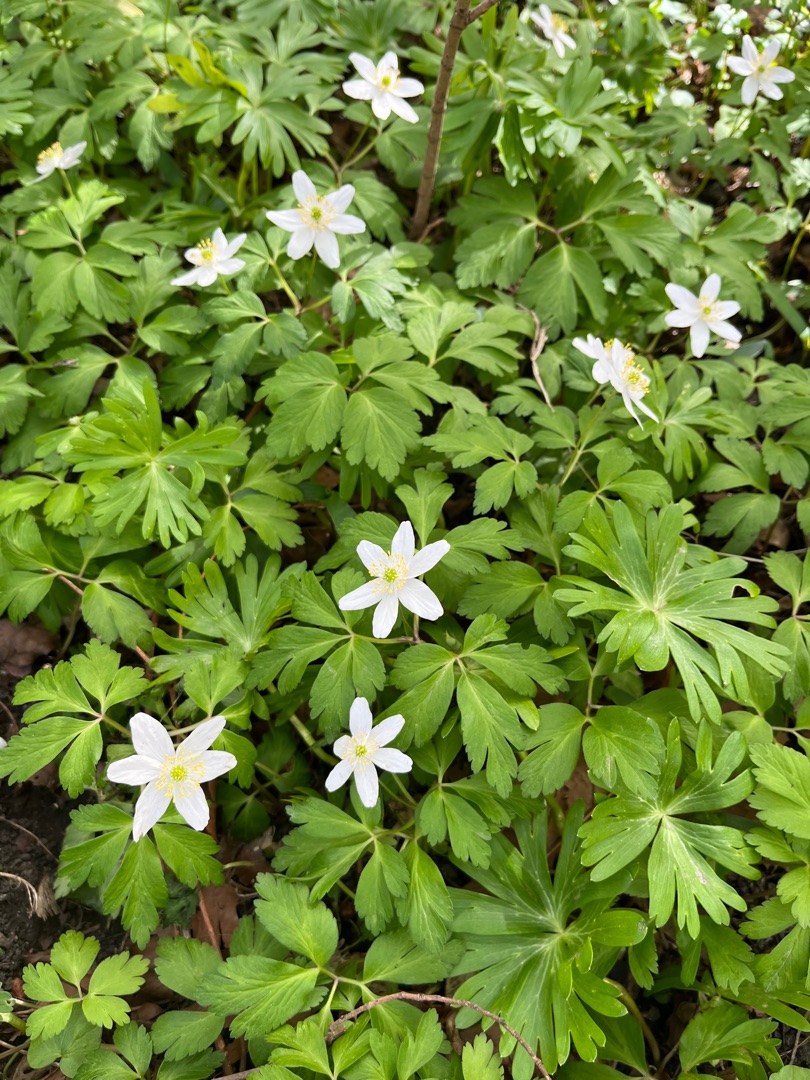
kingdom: Plantae
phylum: Tracheophyta
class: Magnoliopsida
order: Ranunculales
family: Ranunculaceae
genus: Anemone
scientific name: Anemone nemorosa
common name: Hvid anemone
